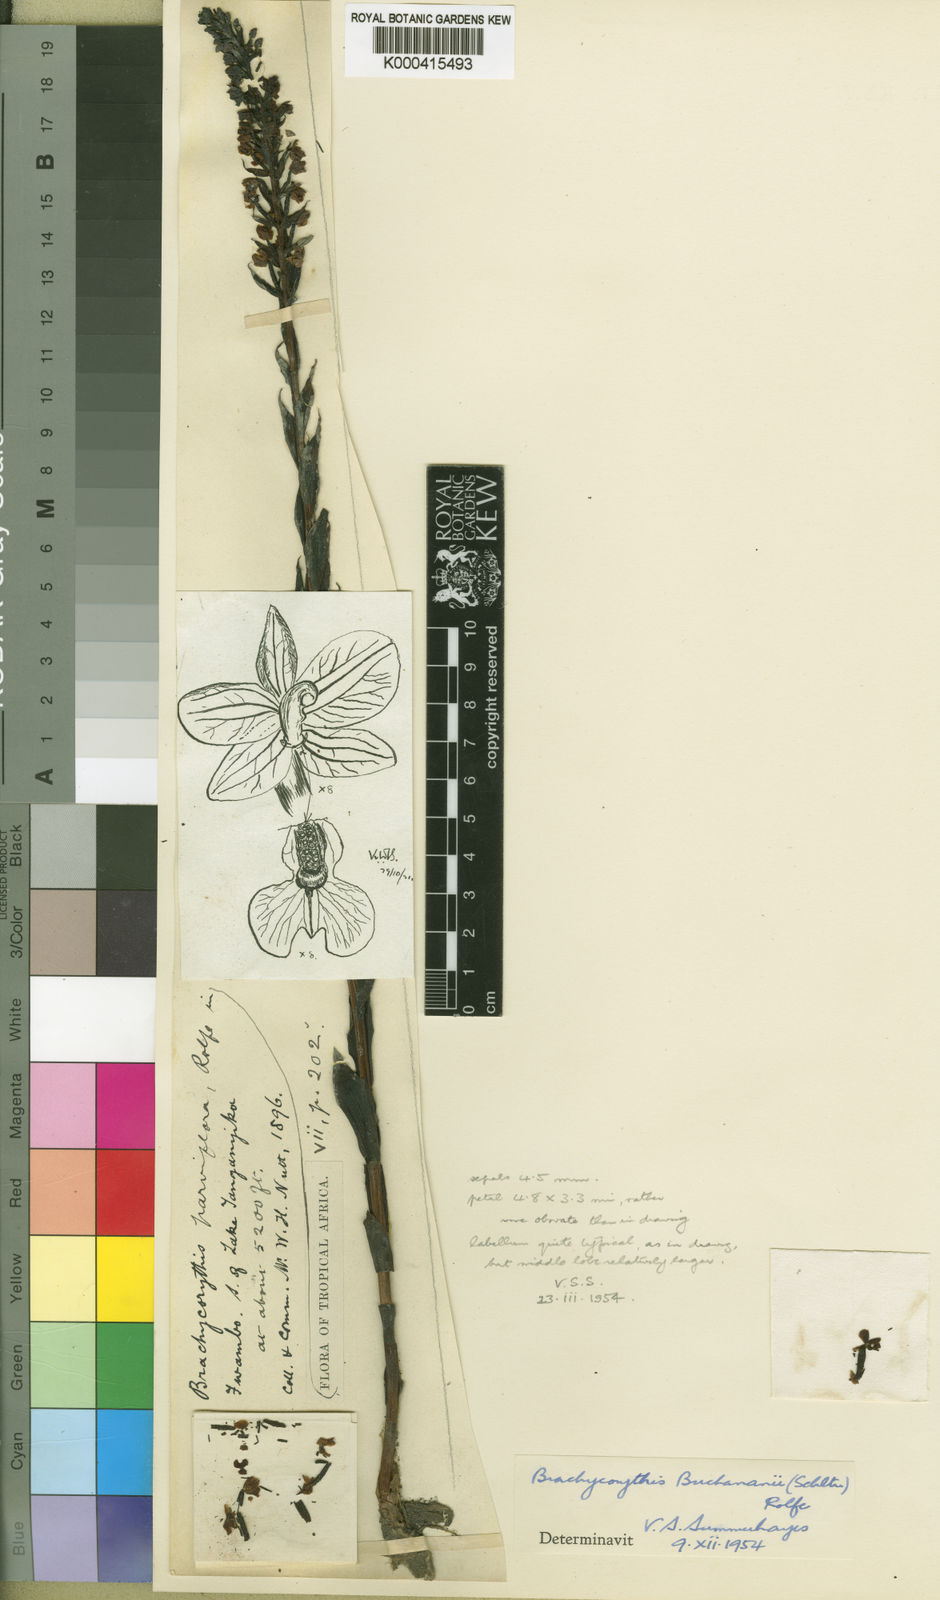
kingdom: Plantae
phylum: Tracheophyta
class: Liliopsida
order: Asparagales
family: Orchidaceae
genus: Brachycorythis
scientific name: Brachycorythis buchananii
